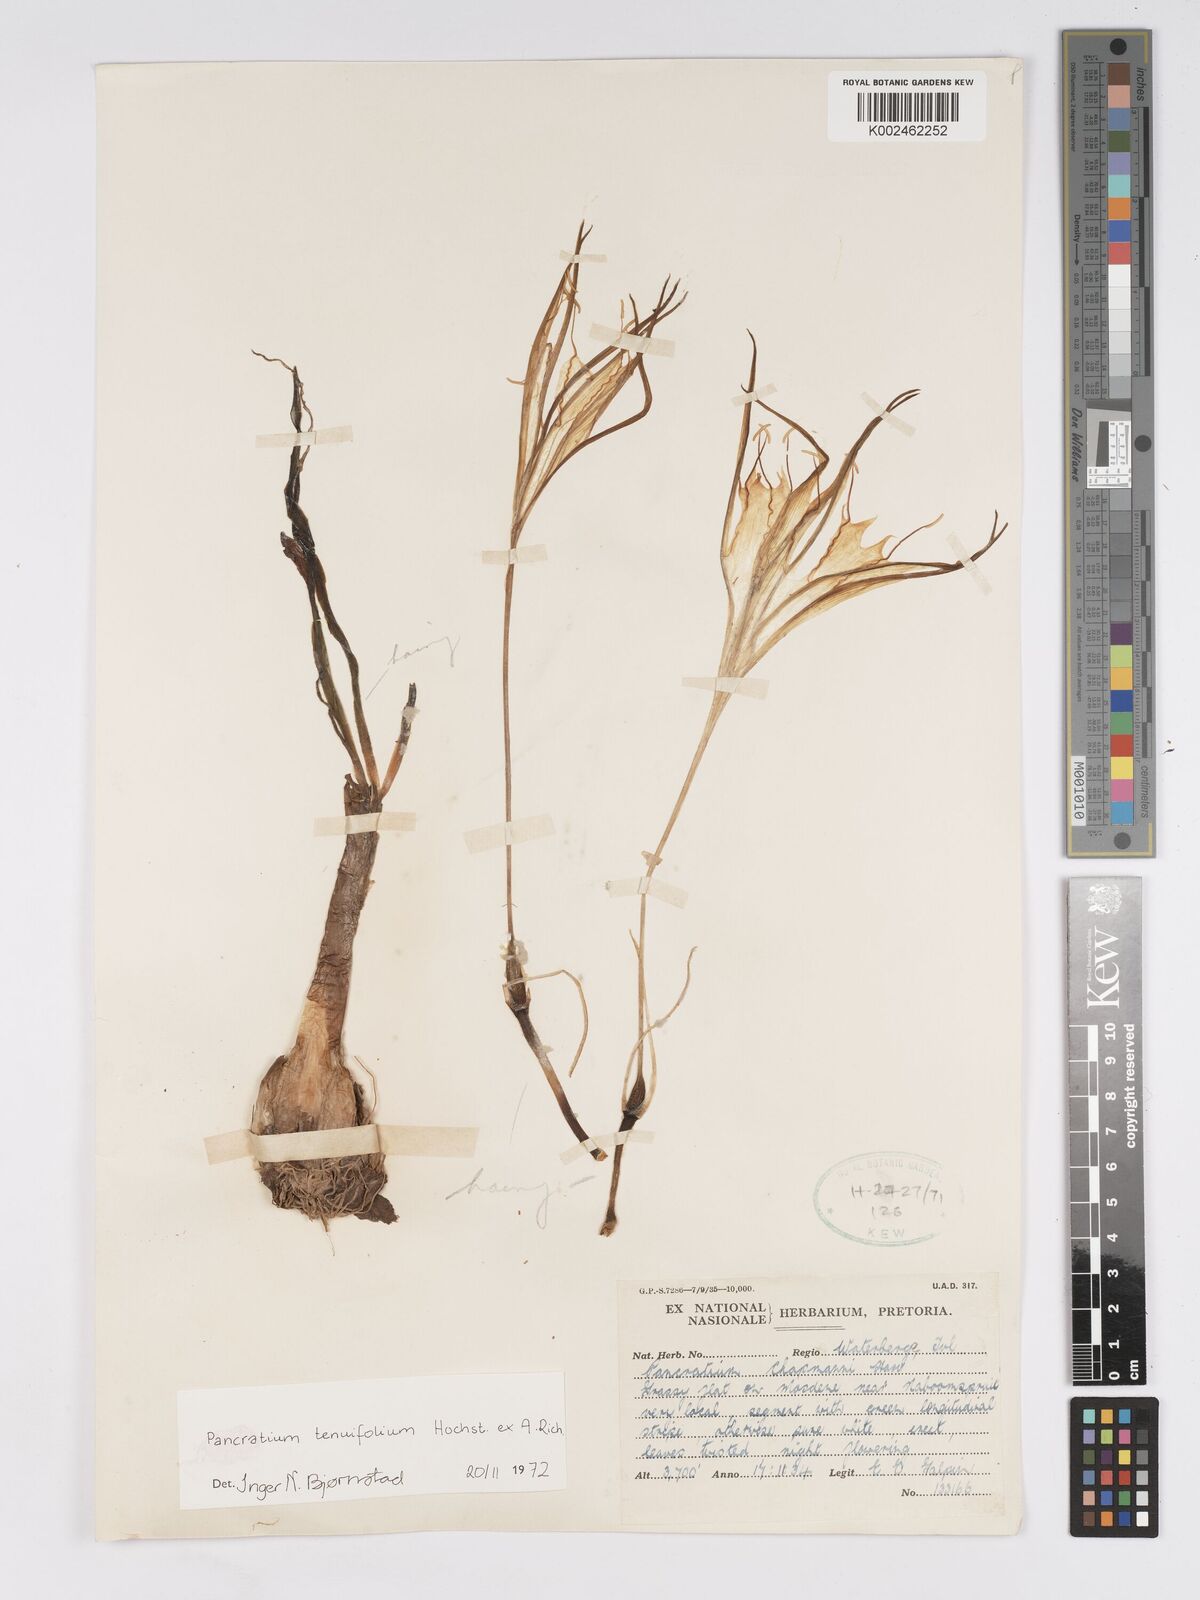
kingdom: Plantae
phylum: Tracheophyta
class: Liliopsida
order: Asparagales
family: Amaryllidaceae
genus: Pancratium
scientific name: Pancratium tenuifolium
